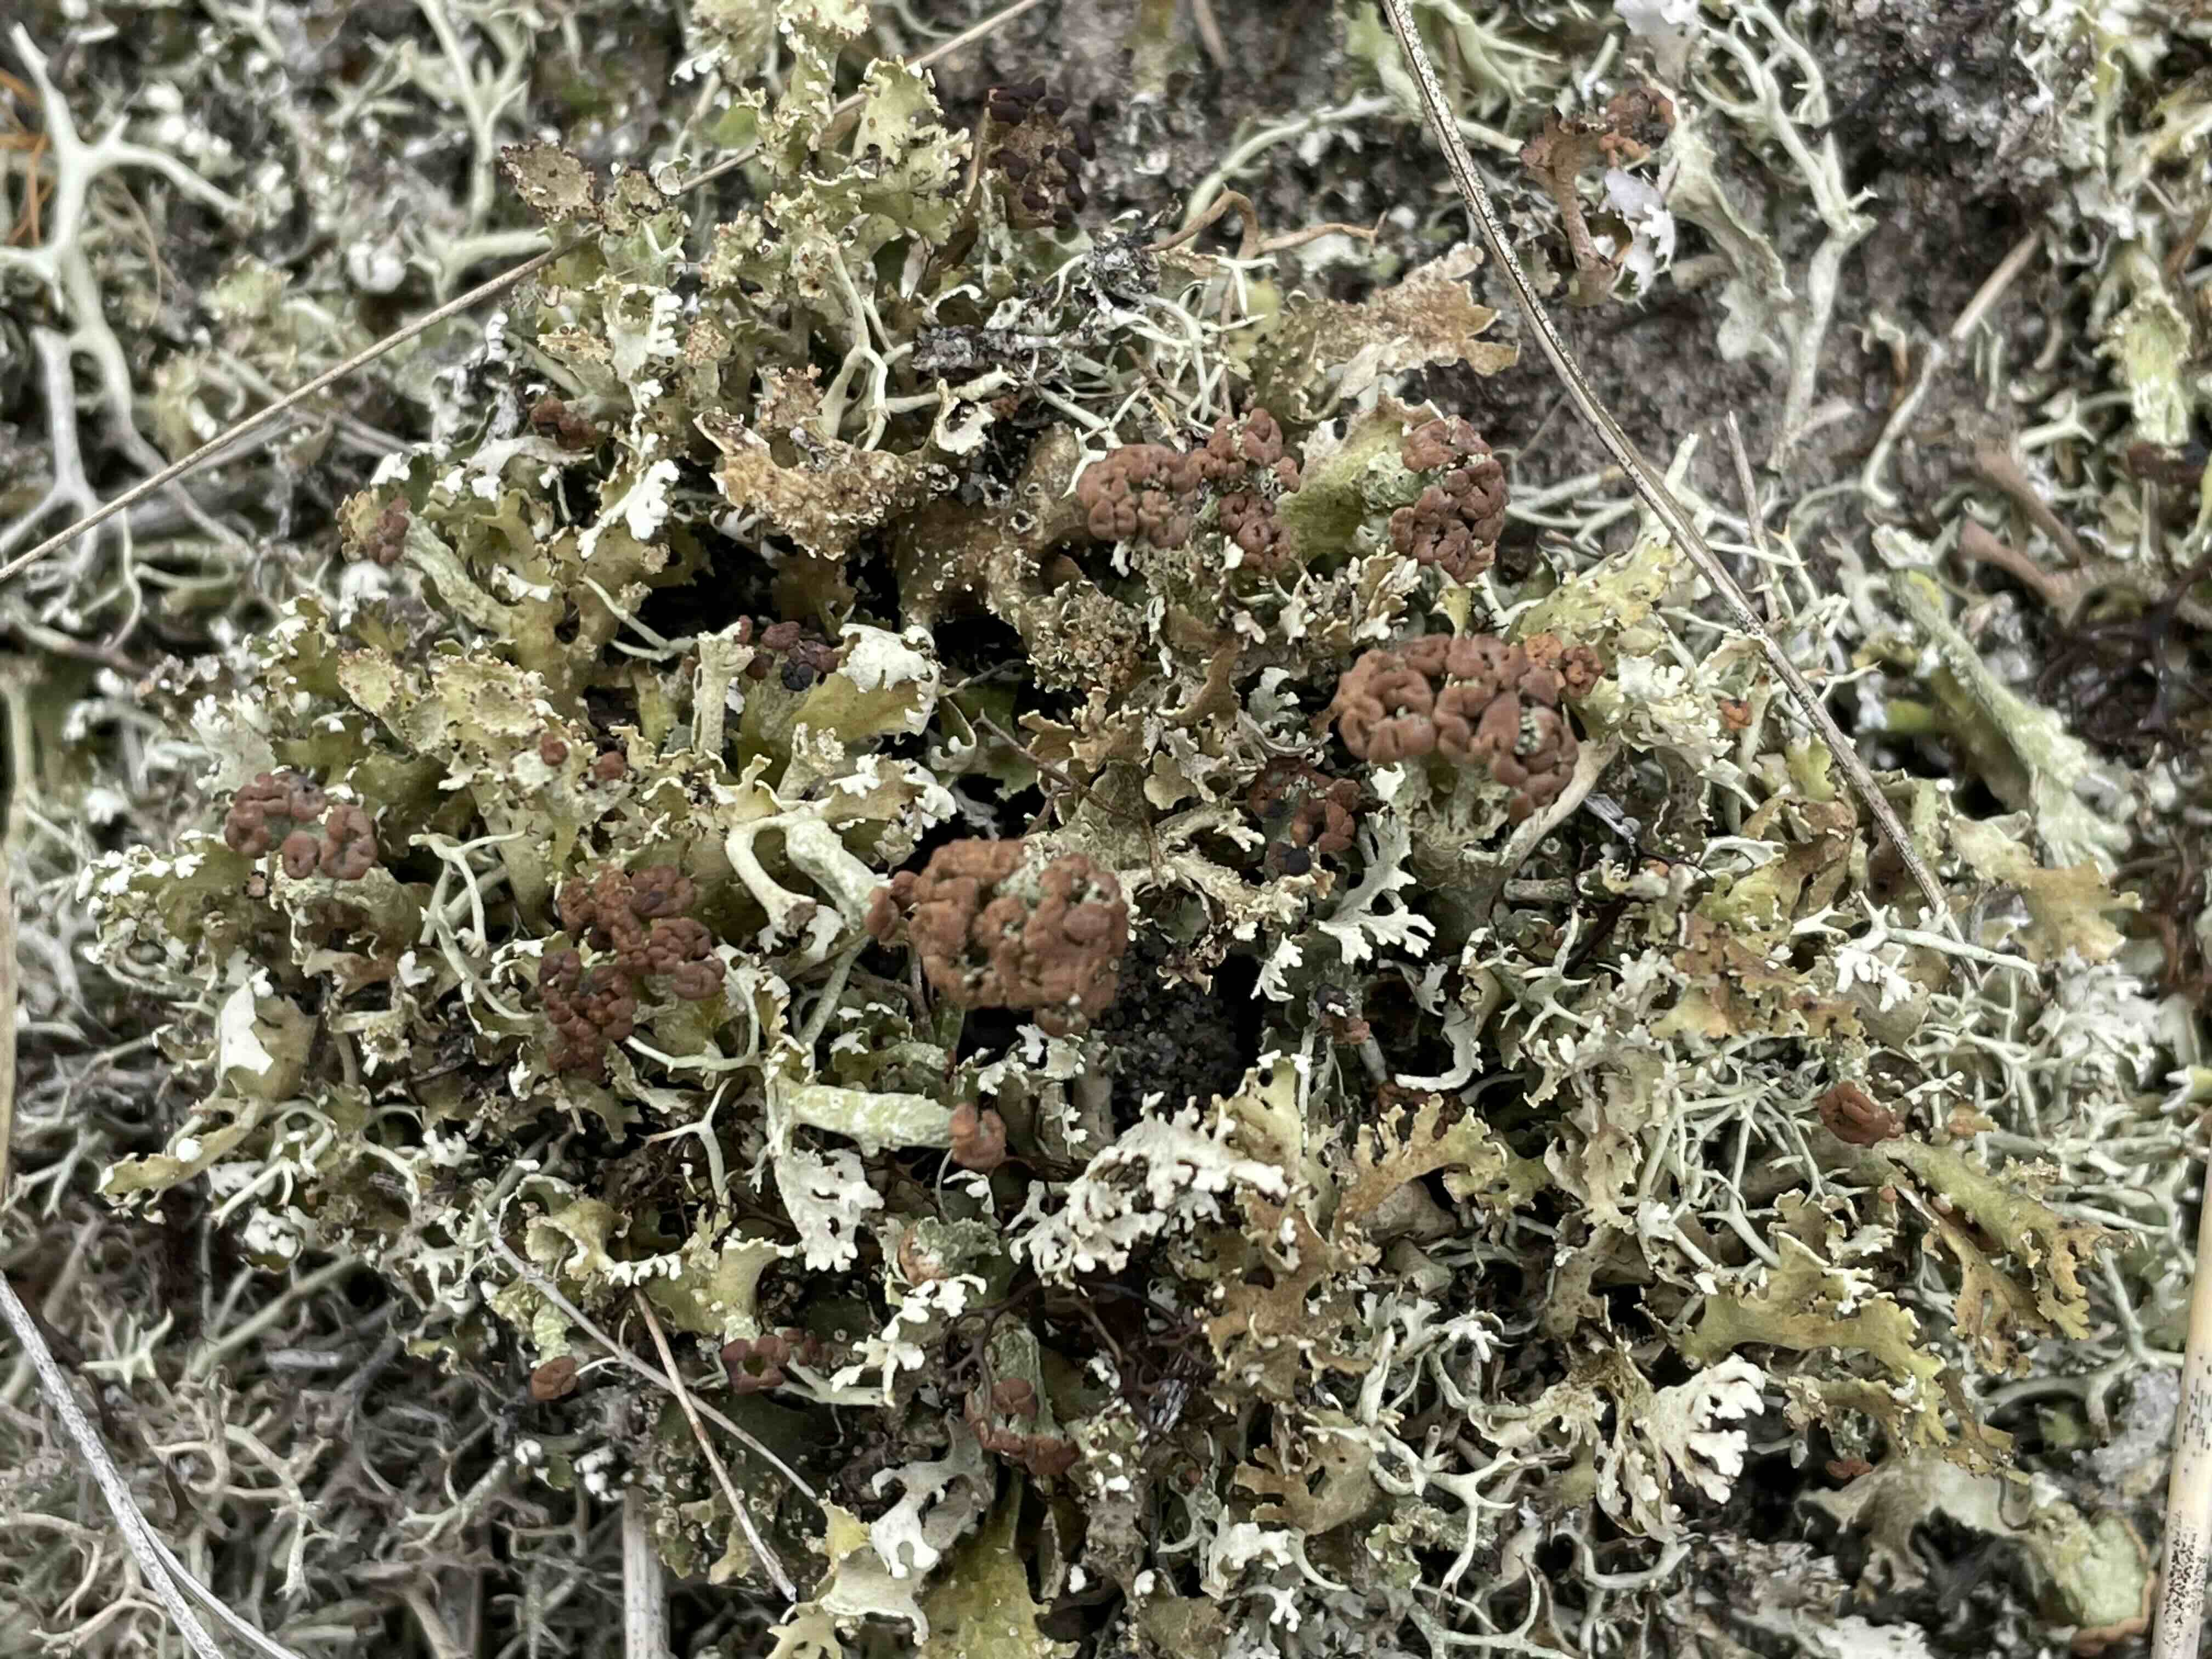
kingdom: Fungi
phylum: Ascomycota
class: Lecanoromycetes
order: Lecanorales
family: Cladoniaceae
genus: Cladonia
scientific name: Cladonia foliacea
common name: fliget bægerlav
